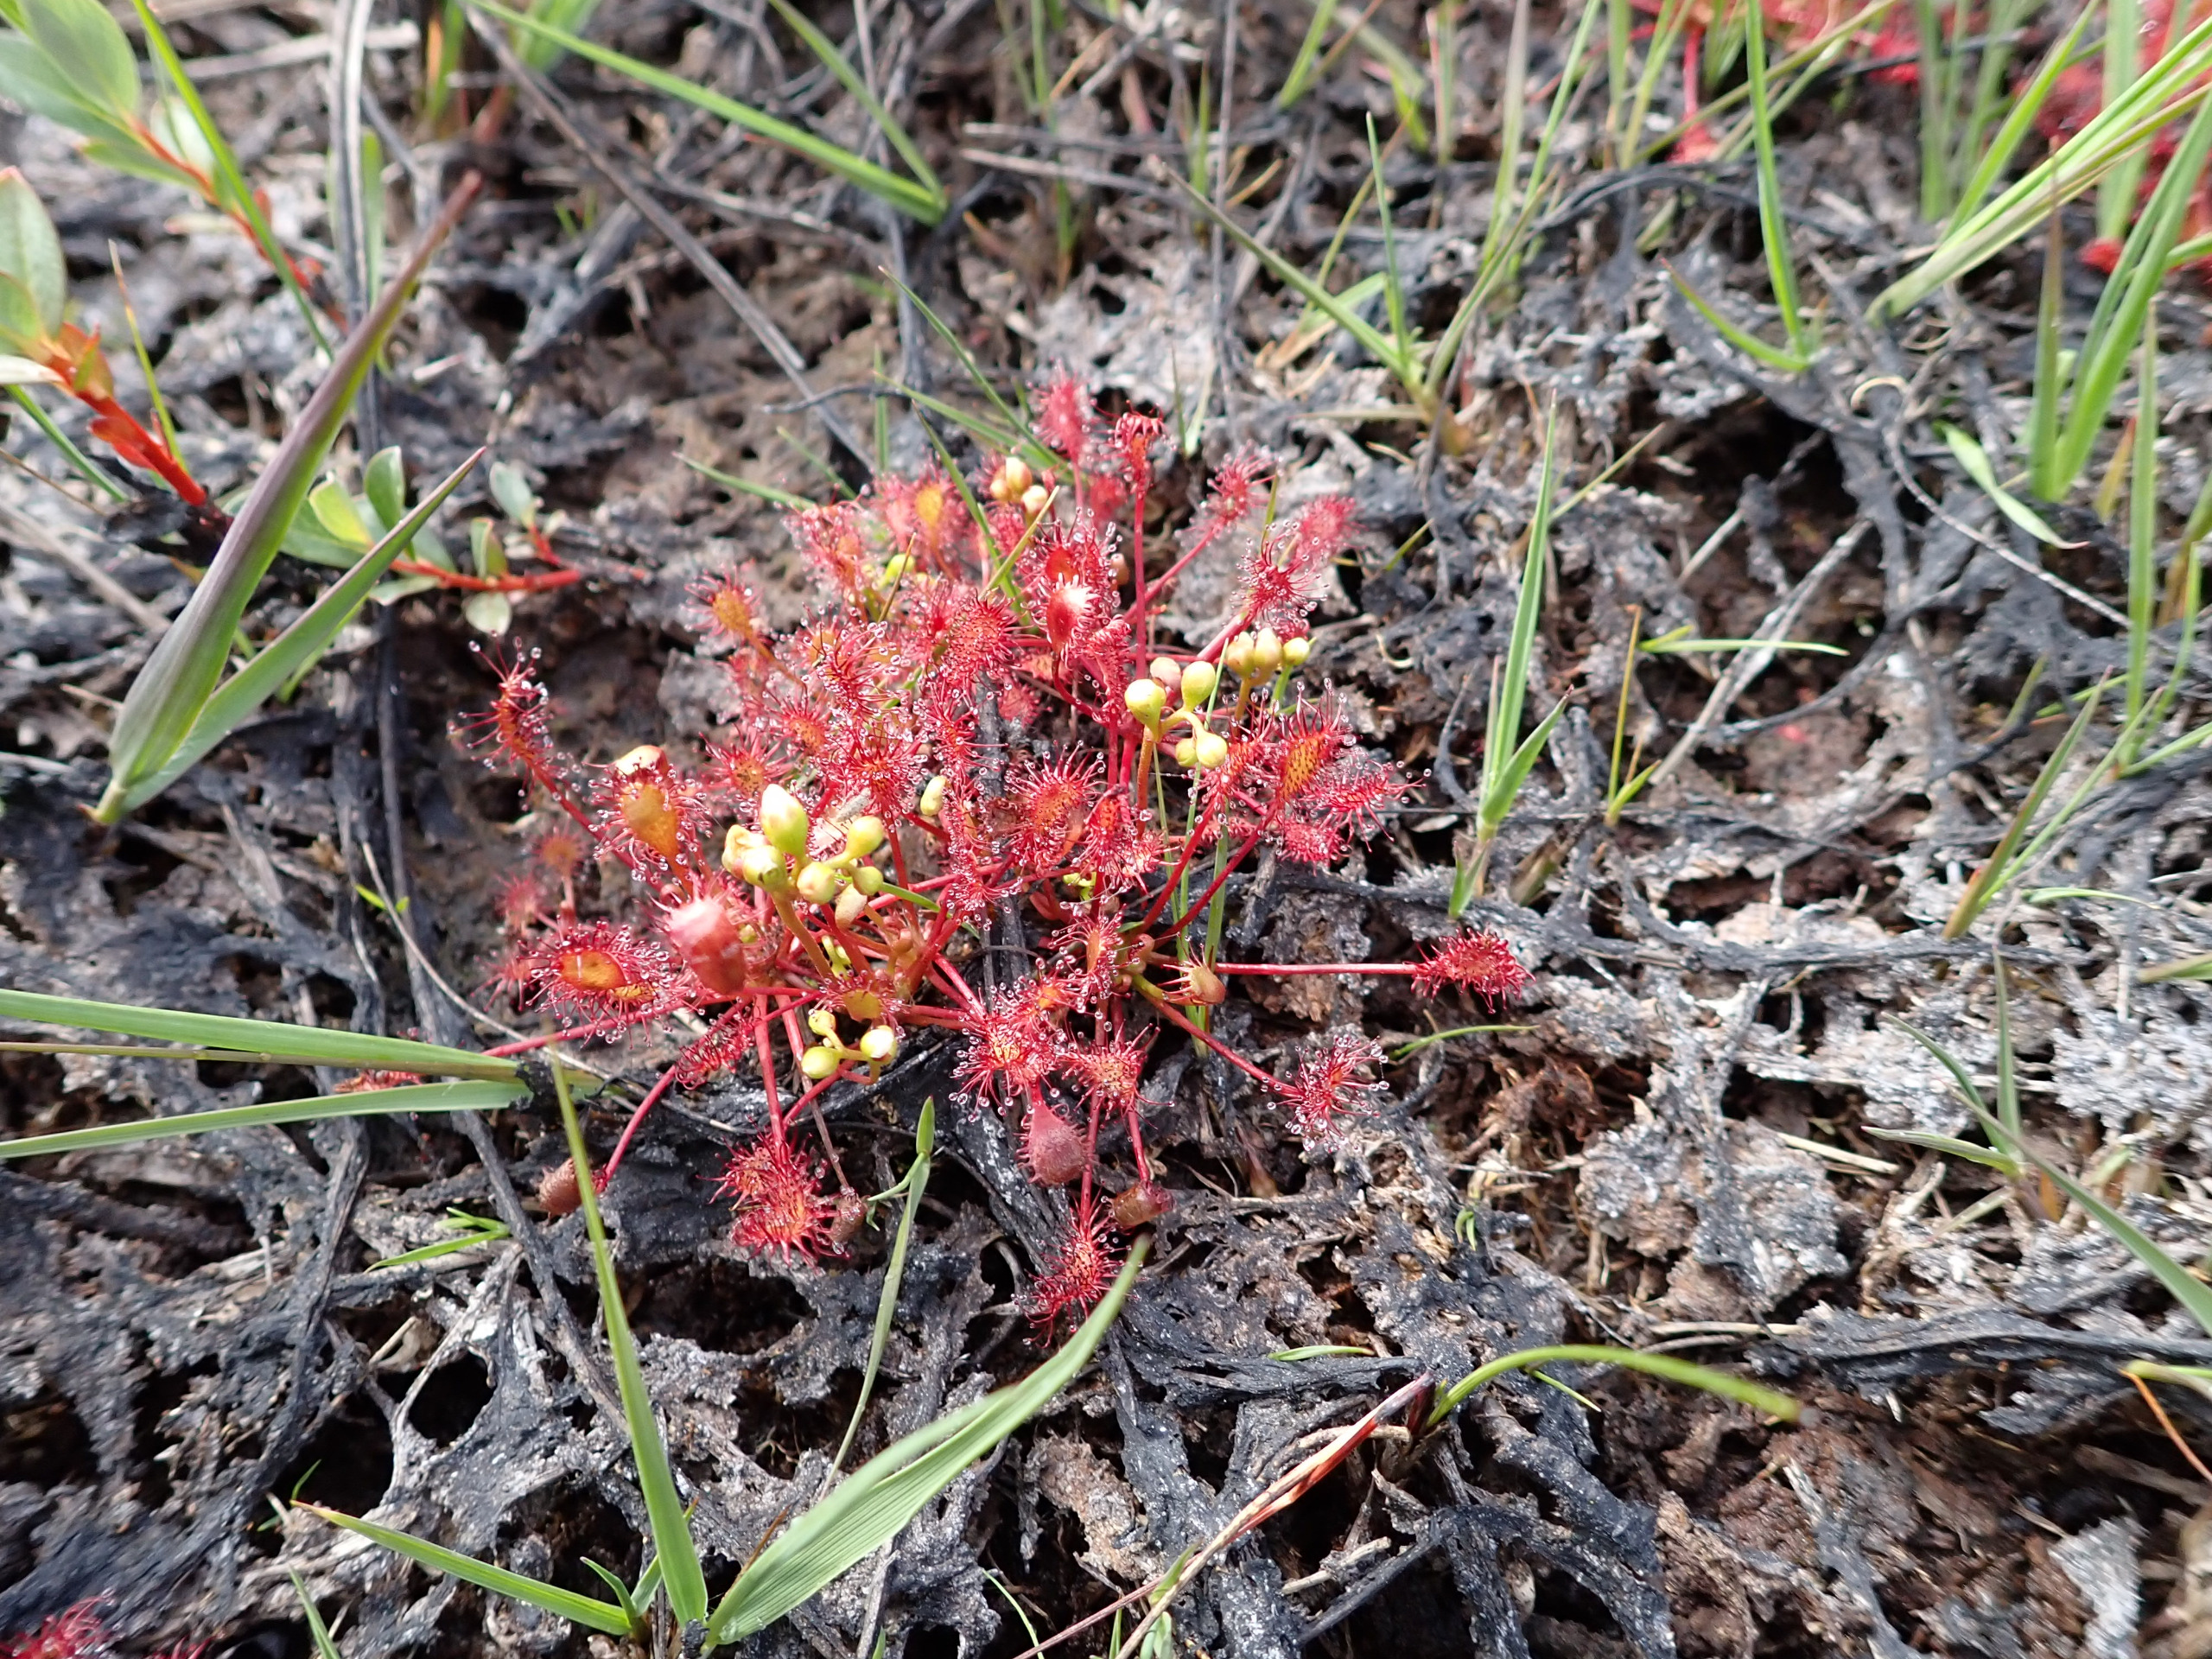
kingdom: Plantae
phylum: Tracheophyta
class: Magnoliopsida
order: Caryophyllales
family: Droseraceae
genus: Drosera
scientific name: Drosera intermedia
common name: Liden soldug
